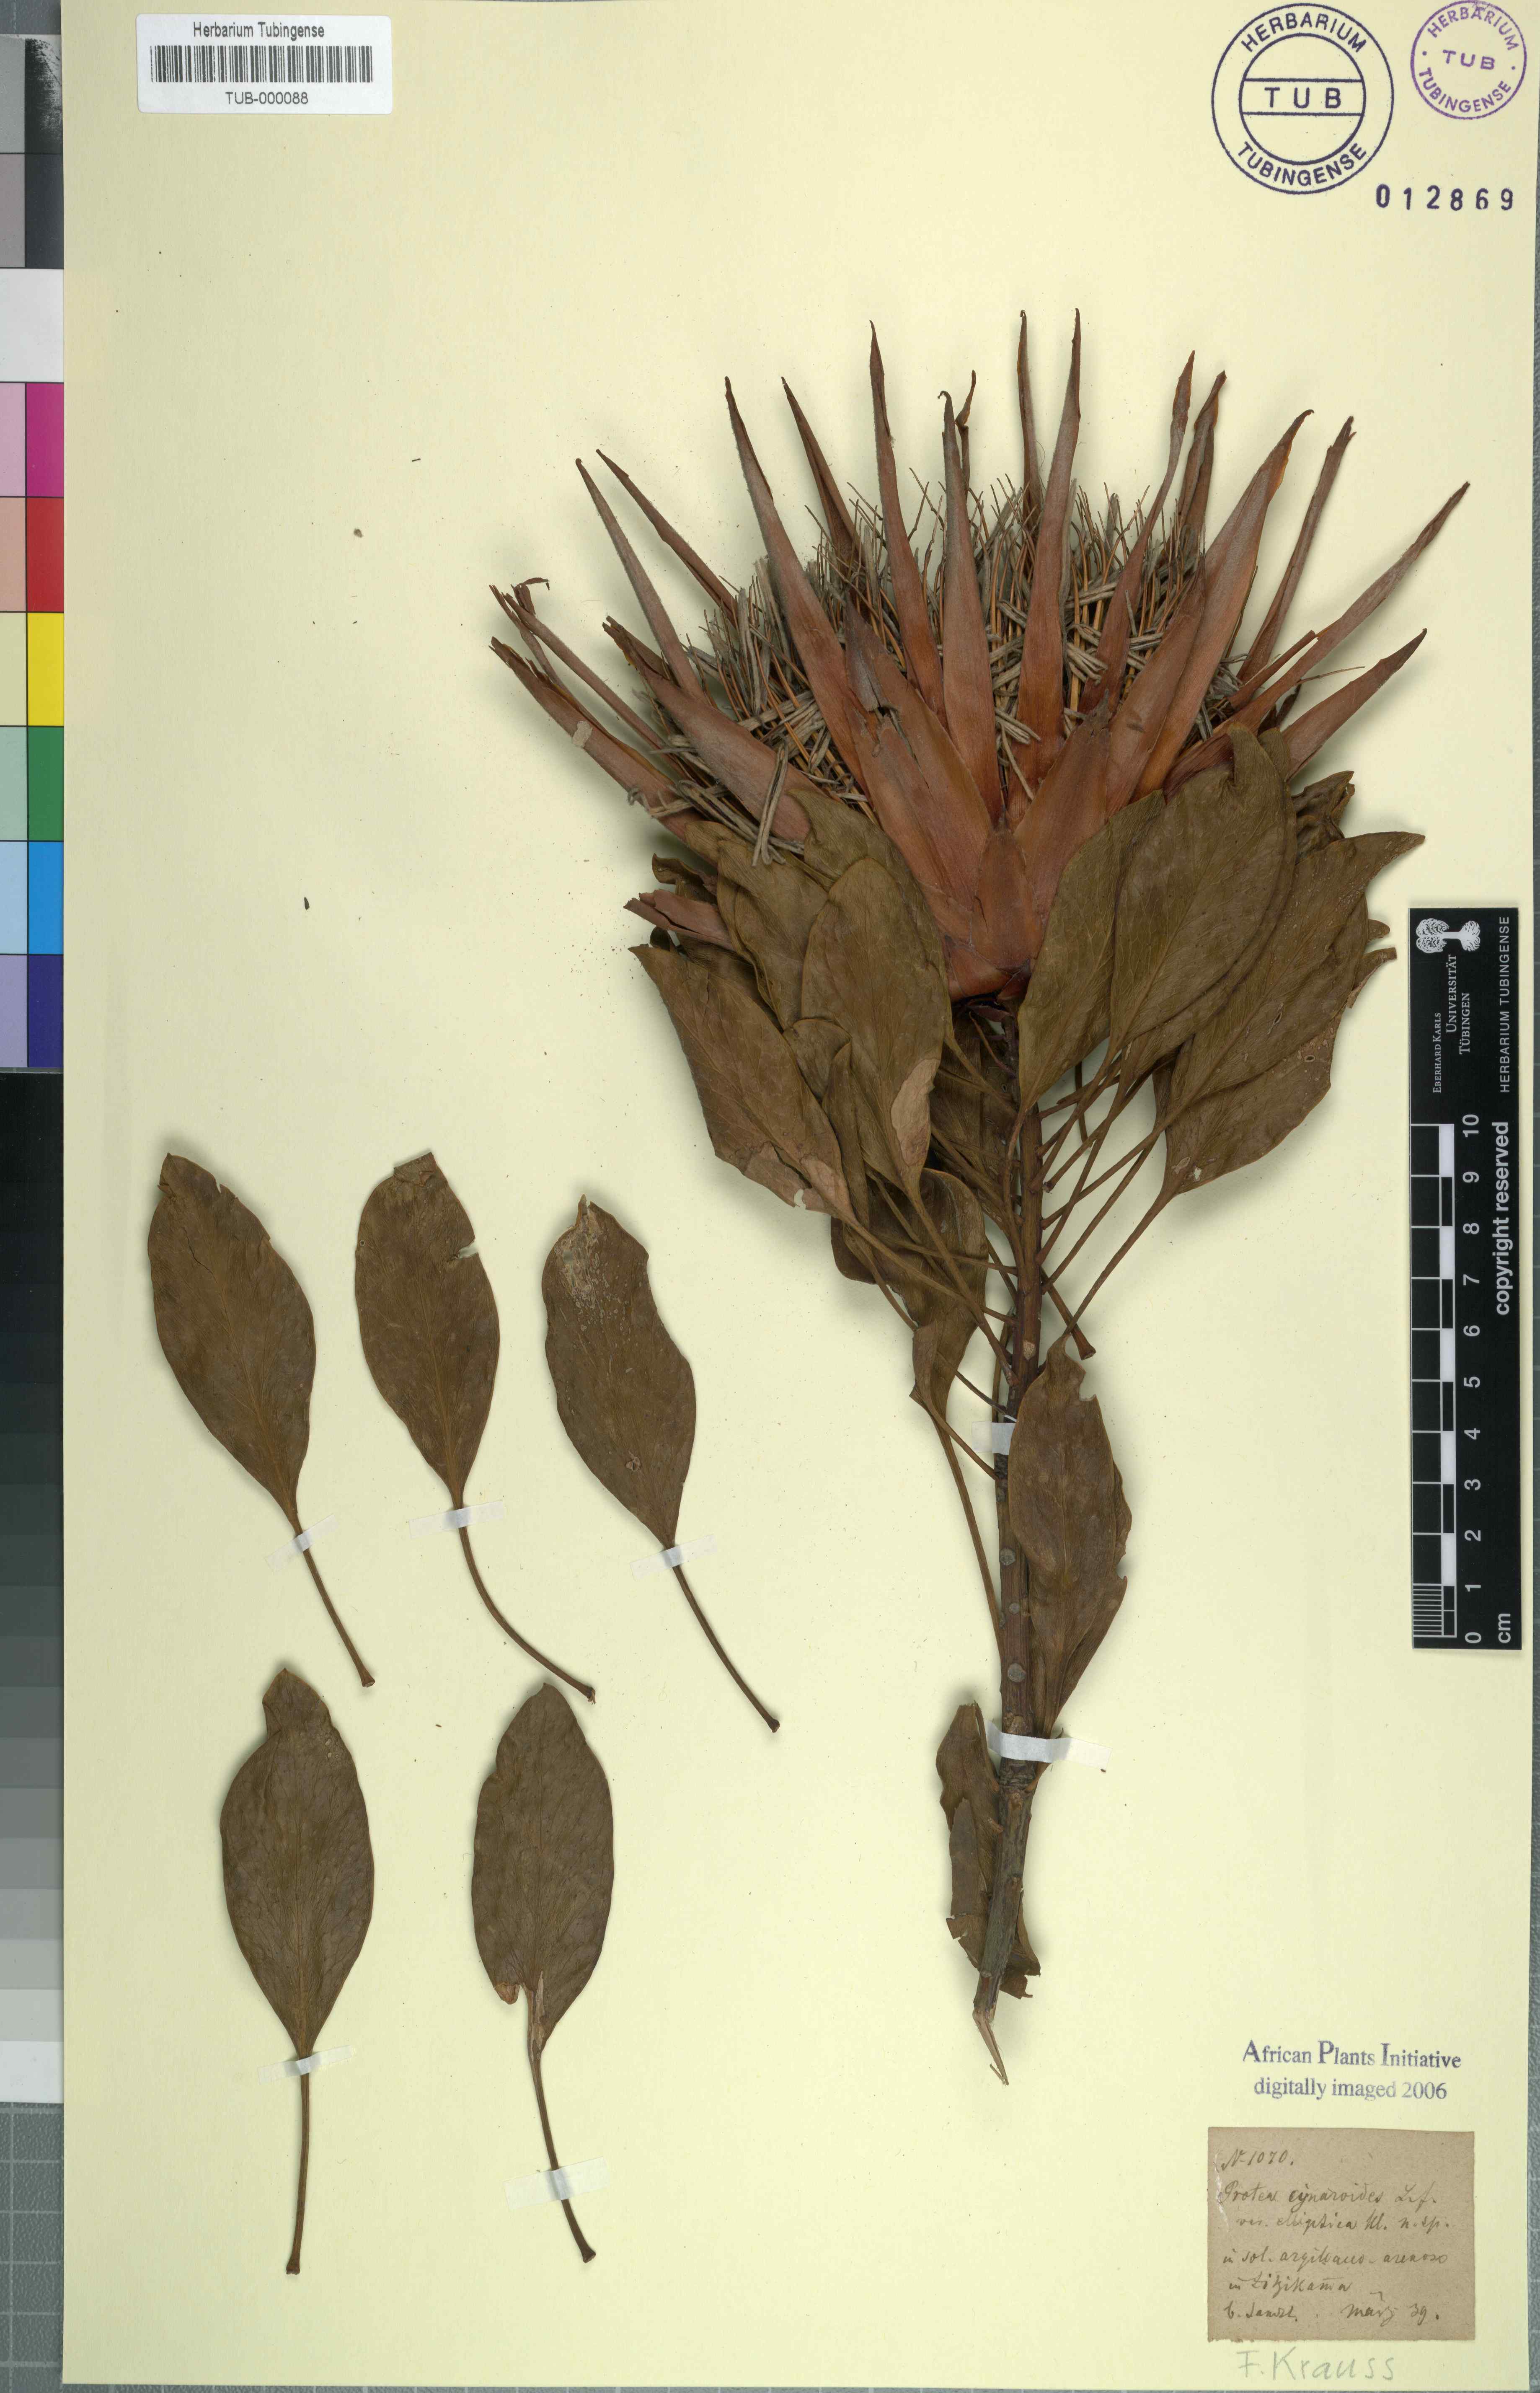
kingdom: Plantae
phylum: Tracheophyta
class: Magnoliopsida
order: Proteales
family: Proteaceae
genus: Protea
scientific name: Protea cynaroides
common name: King protea
